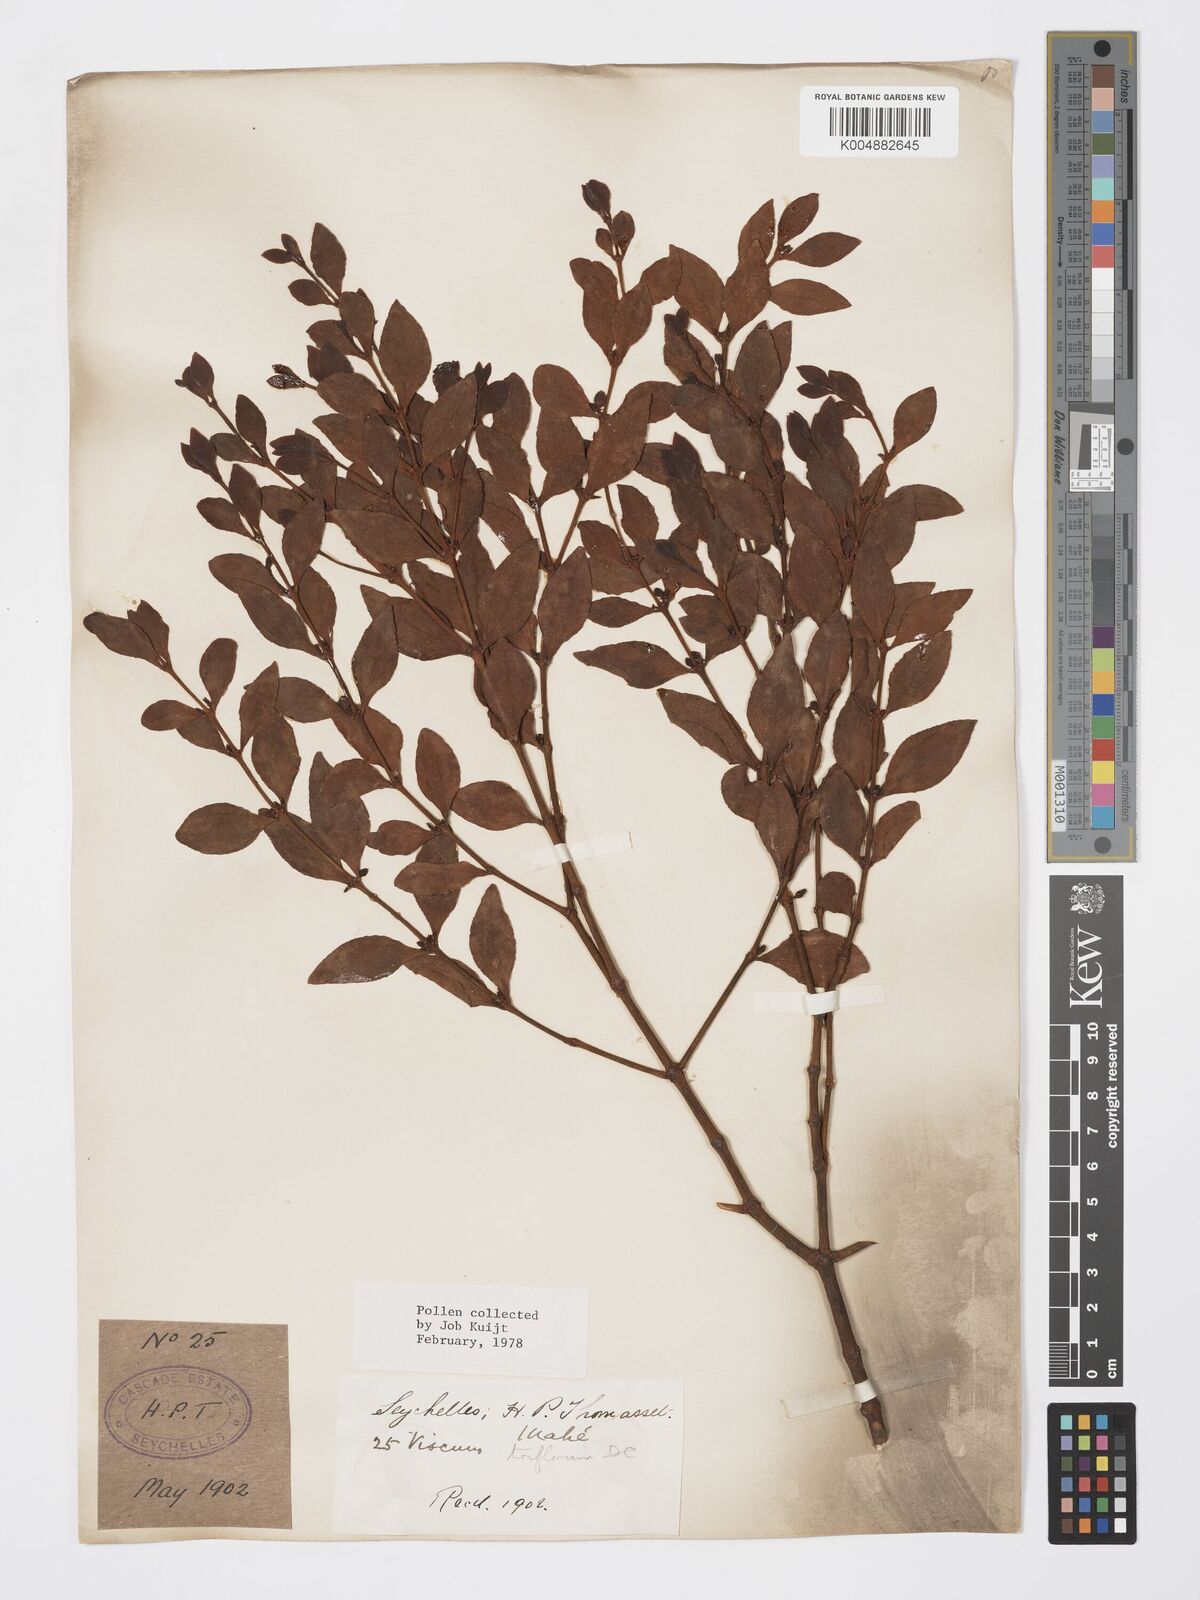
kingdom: Plantae
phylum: Tracheophyta
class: Magnoliopsida
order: Santalales
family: Viscaceae
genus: Viscum
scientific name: Viscum triflorum
